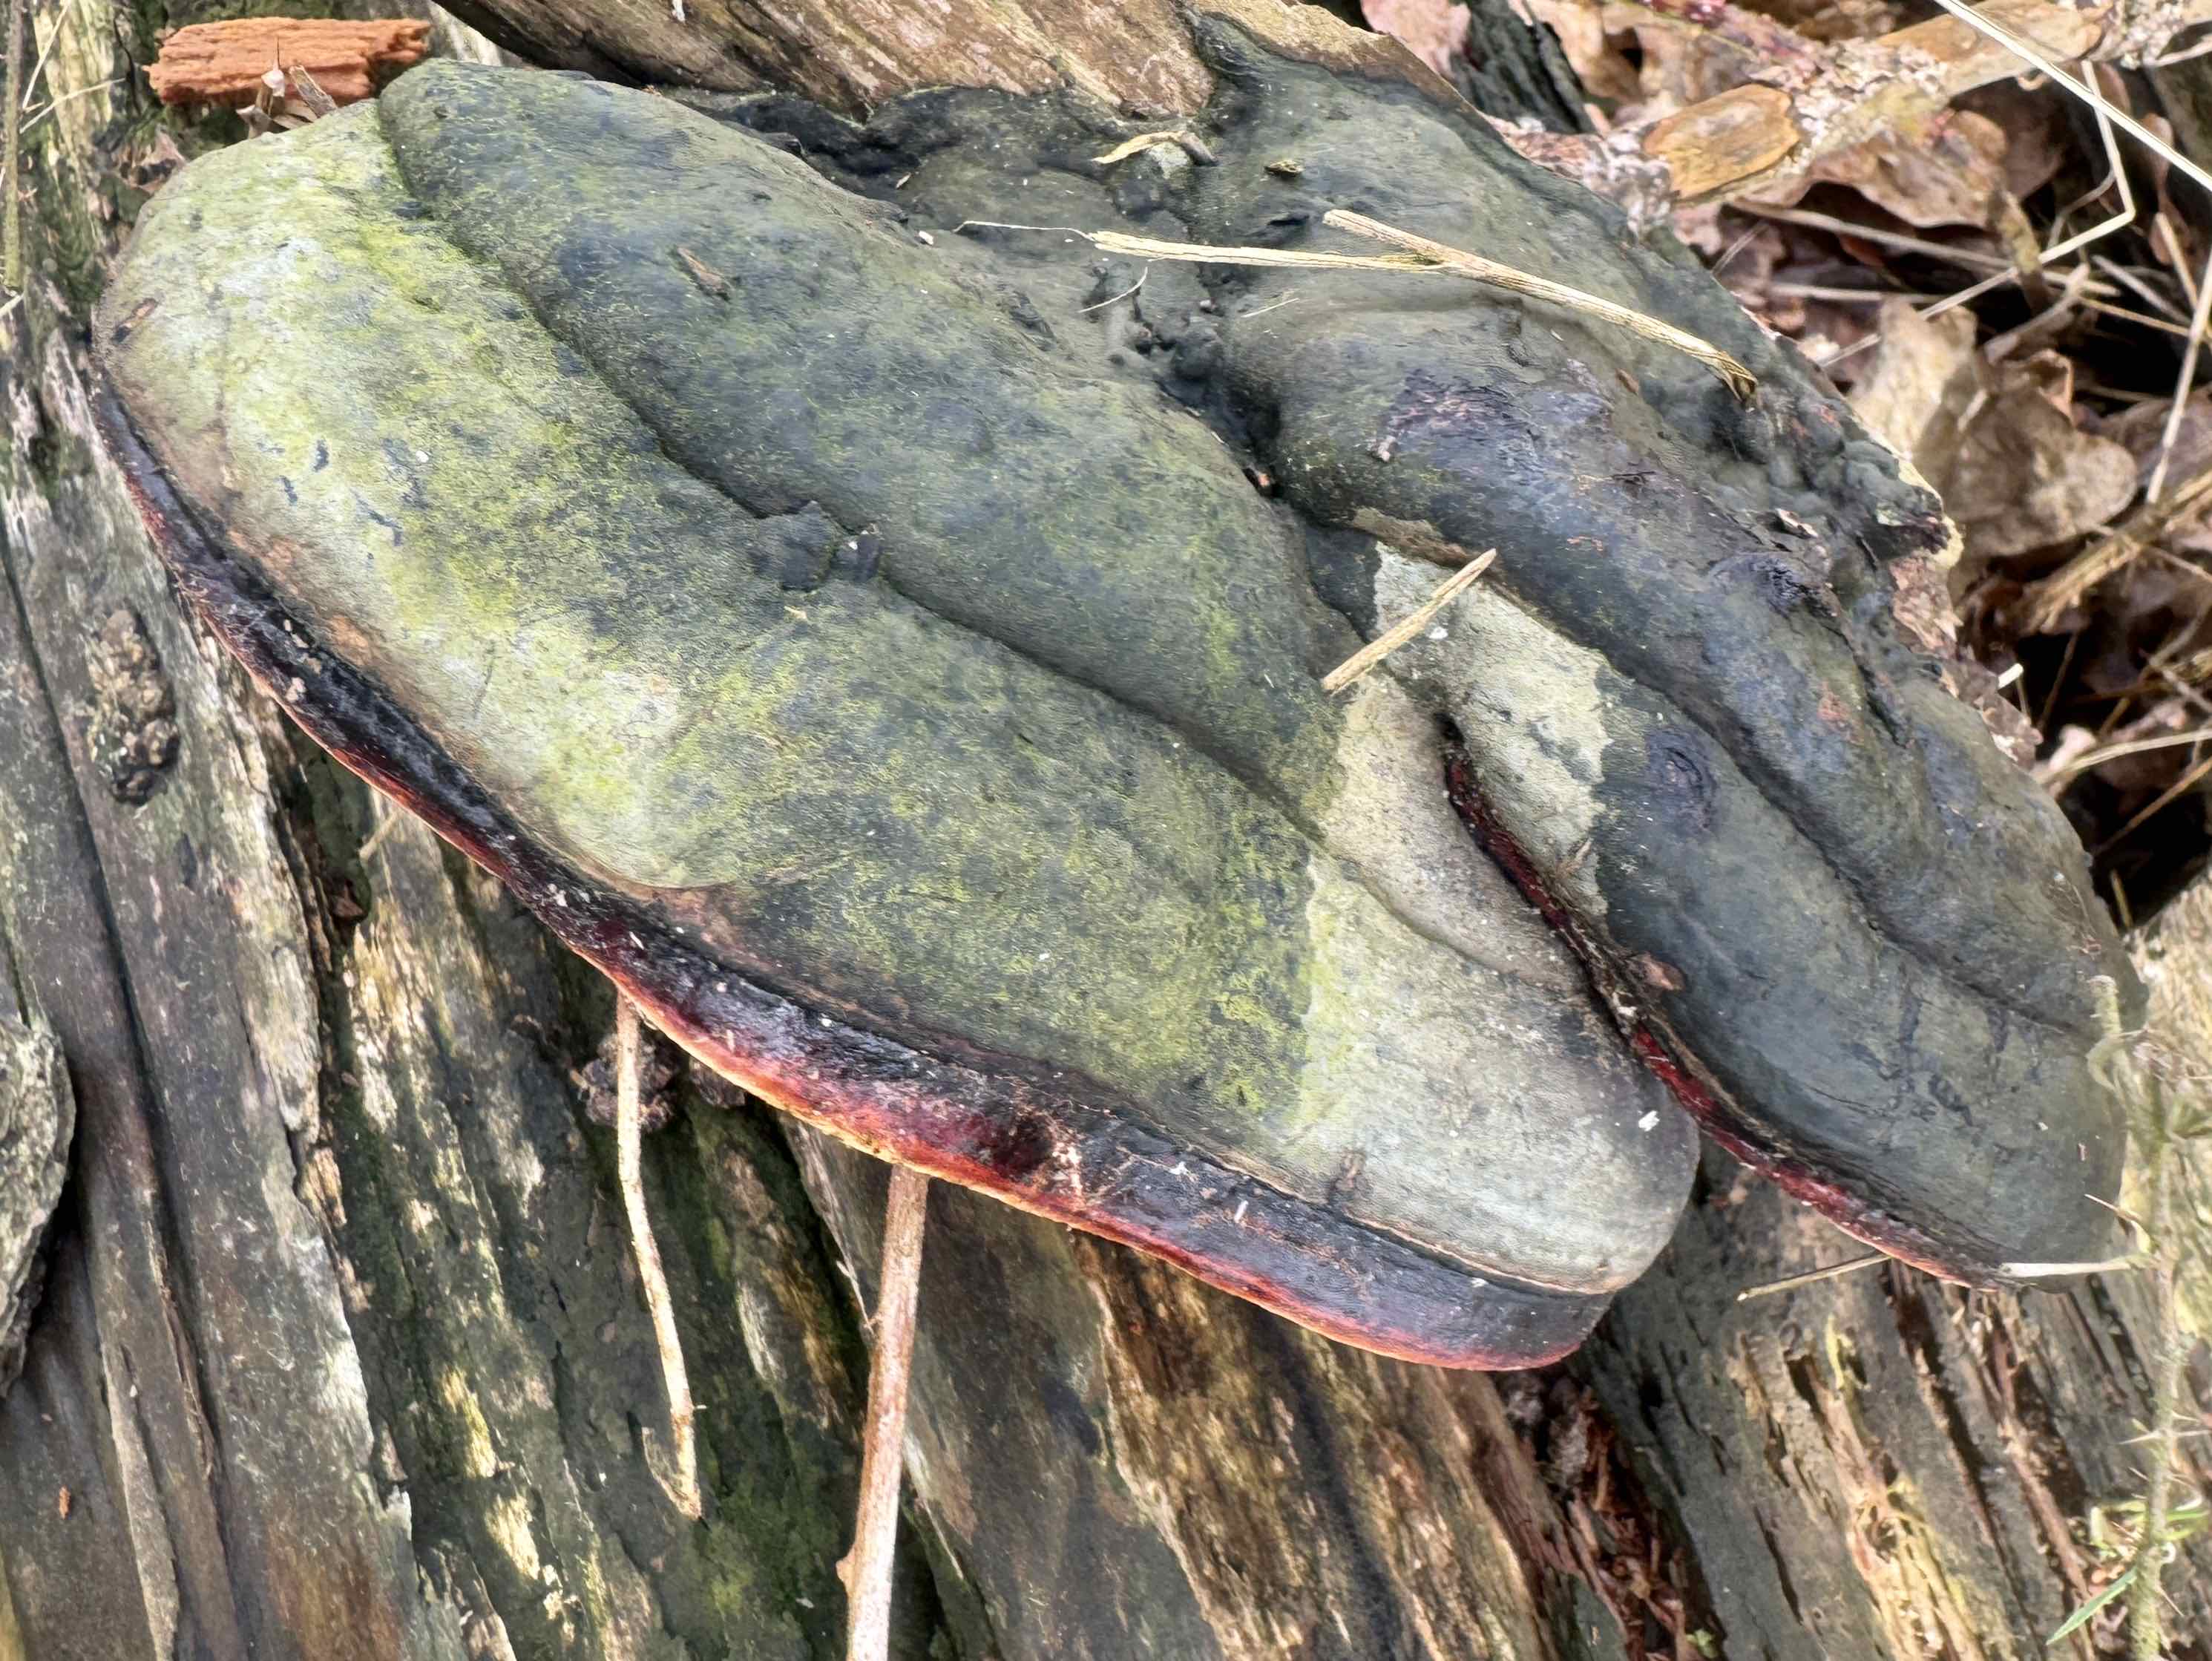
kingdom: Fungi
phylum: Basidiomycota
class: Agaricomycetes
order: Polyporales
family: Fomitopsidaceae
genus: Fomitopsis
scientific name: Fomitopsis pinicola
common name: randbæltet hovporesvamp
